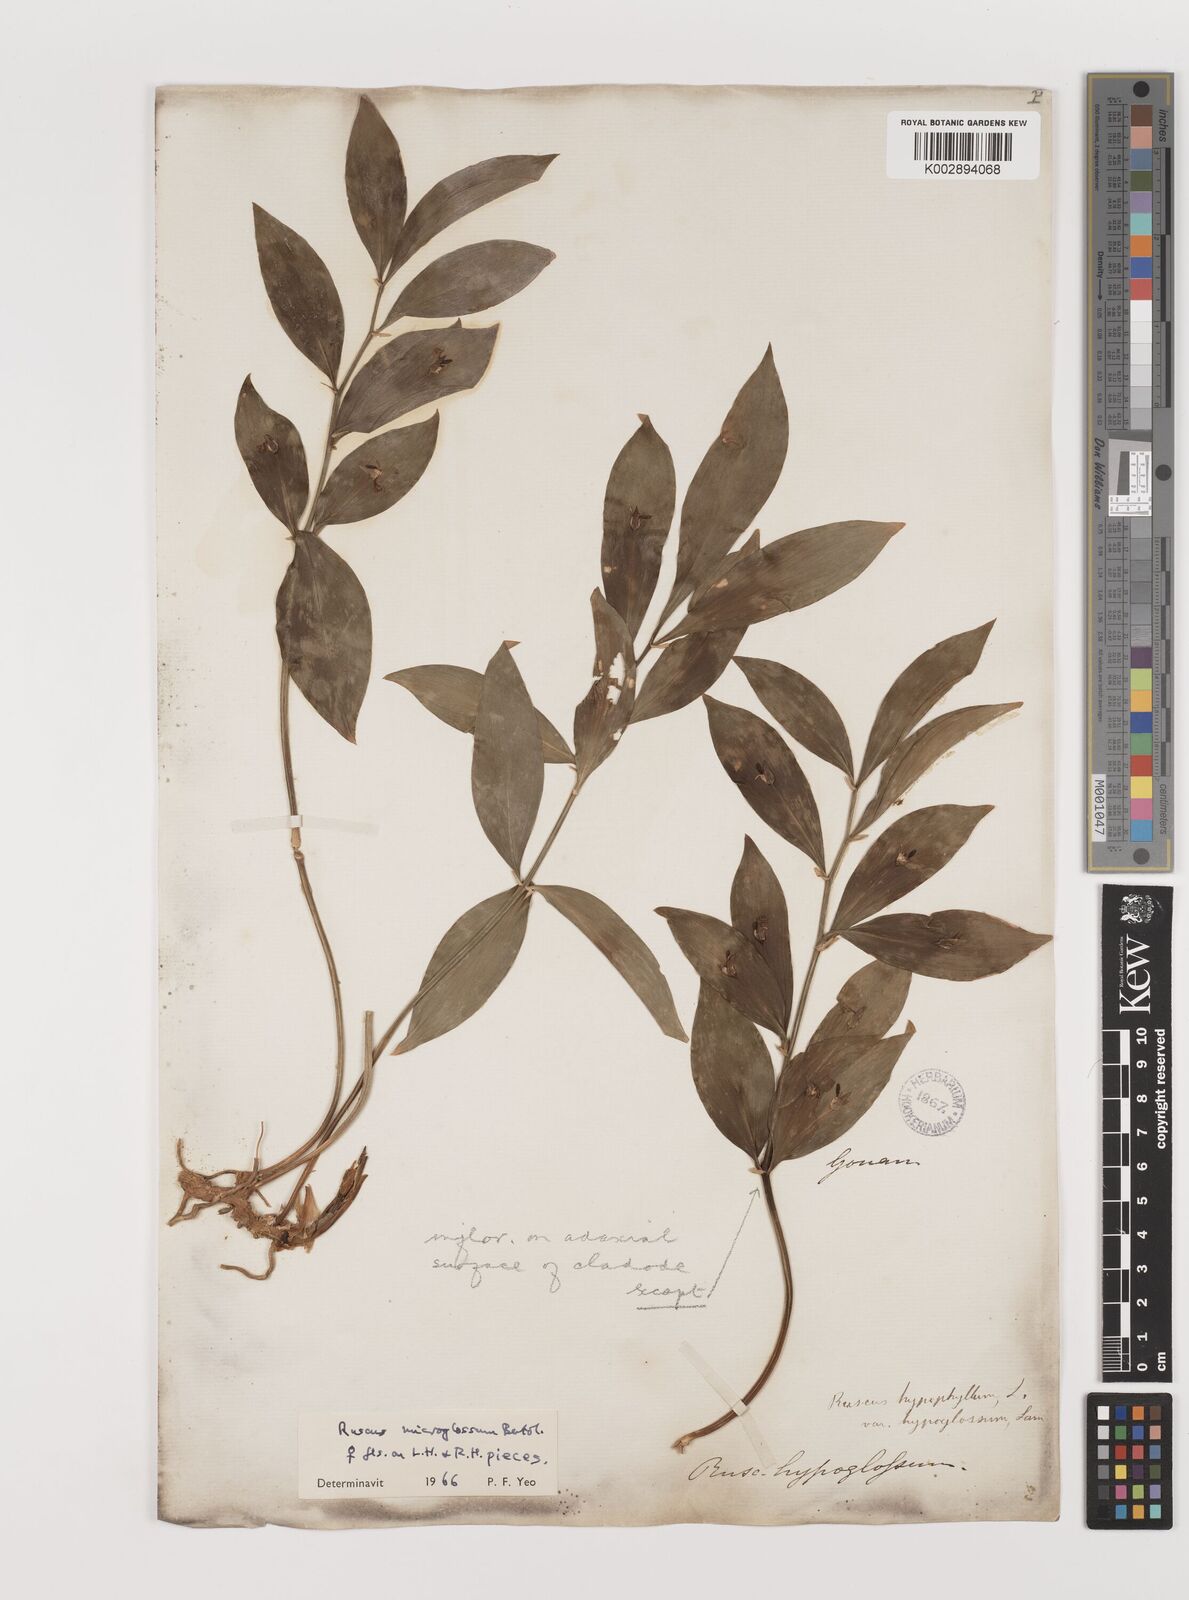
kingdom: Plantae
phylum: Tracheophyta
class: Liliopsida
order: Asparagales
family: Asparagaceae
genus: Ruscus
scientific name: Ruscus microglossus
